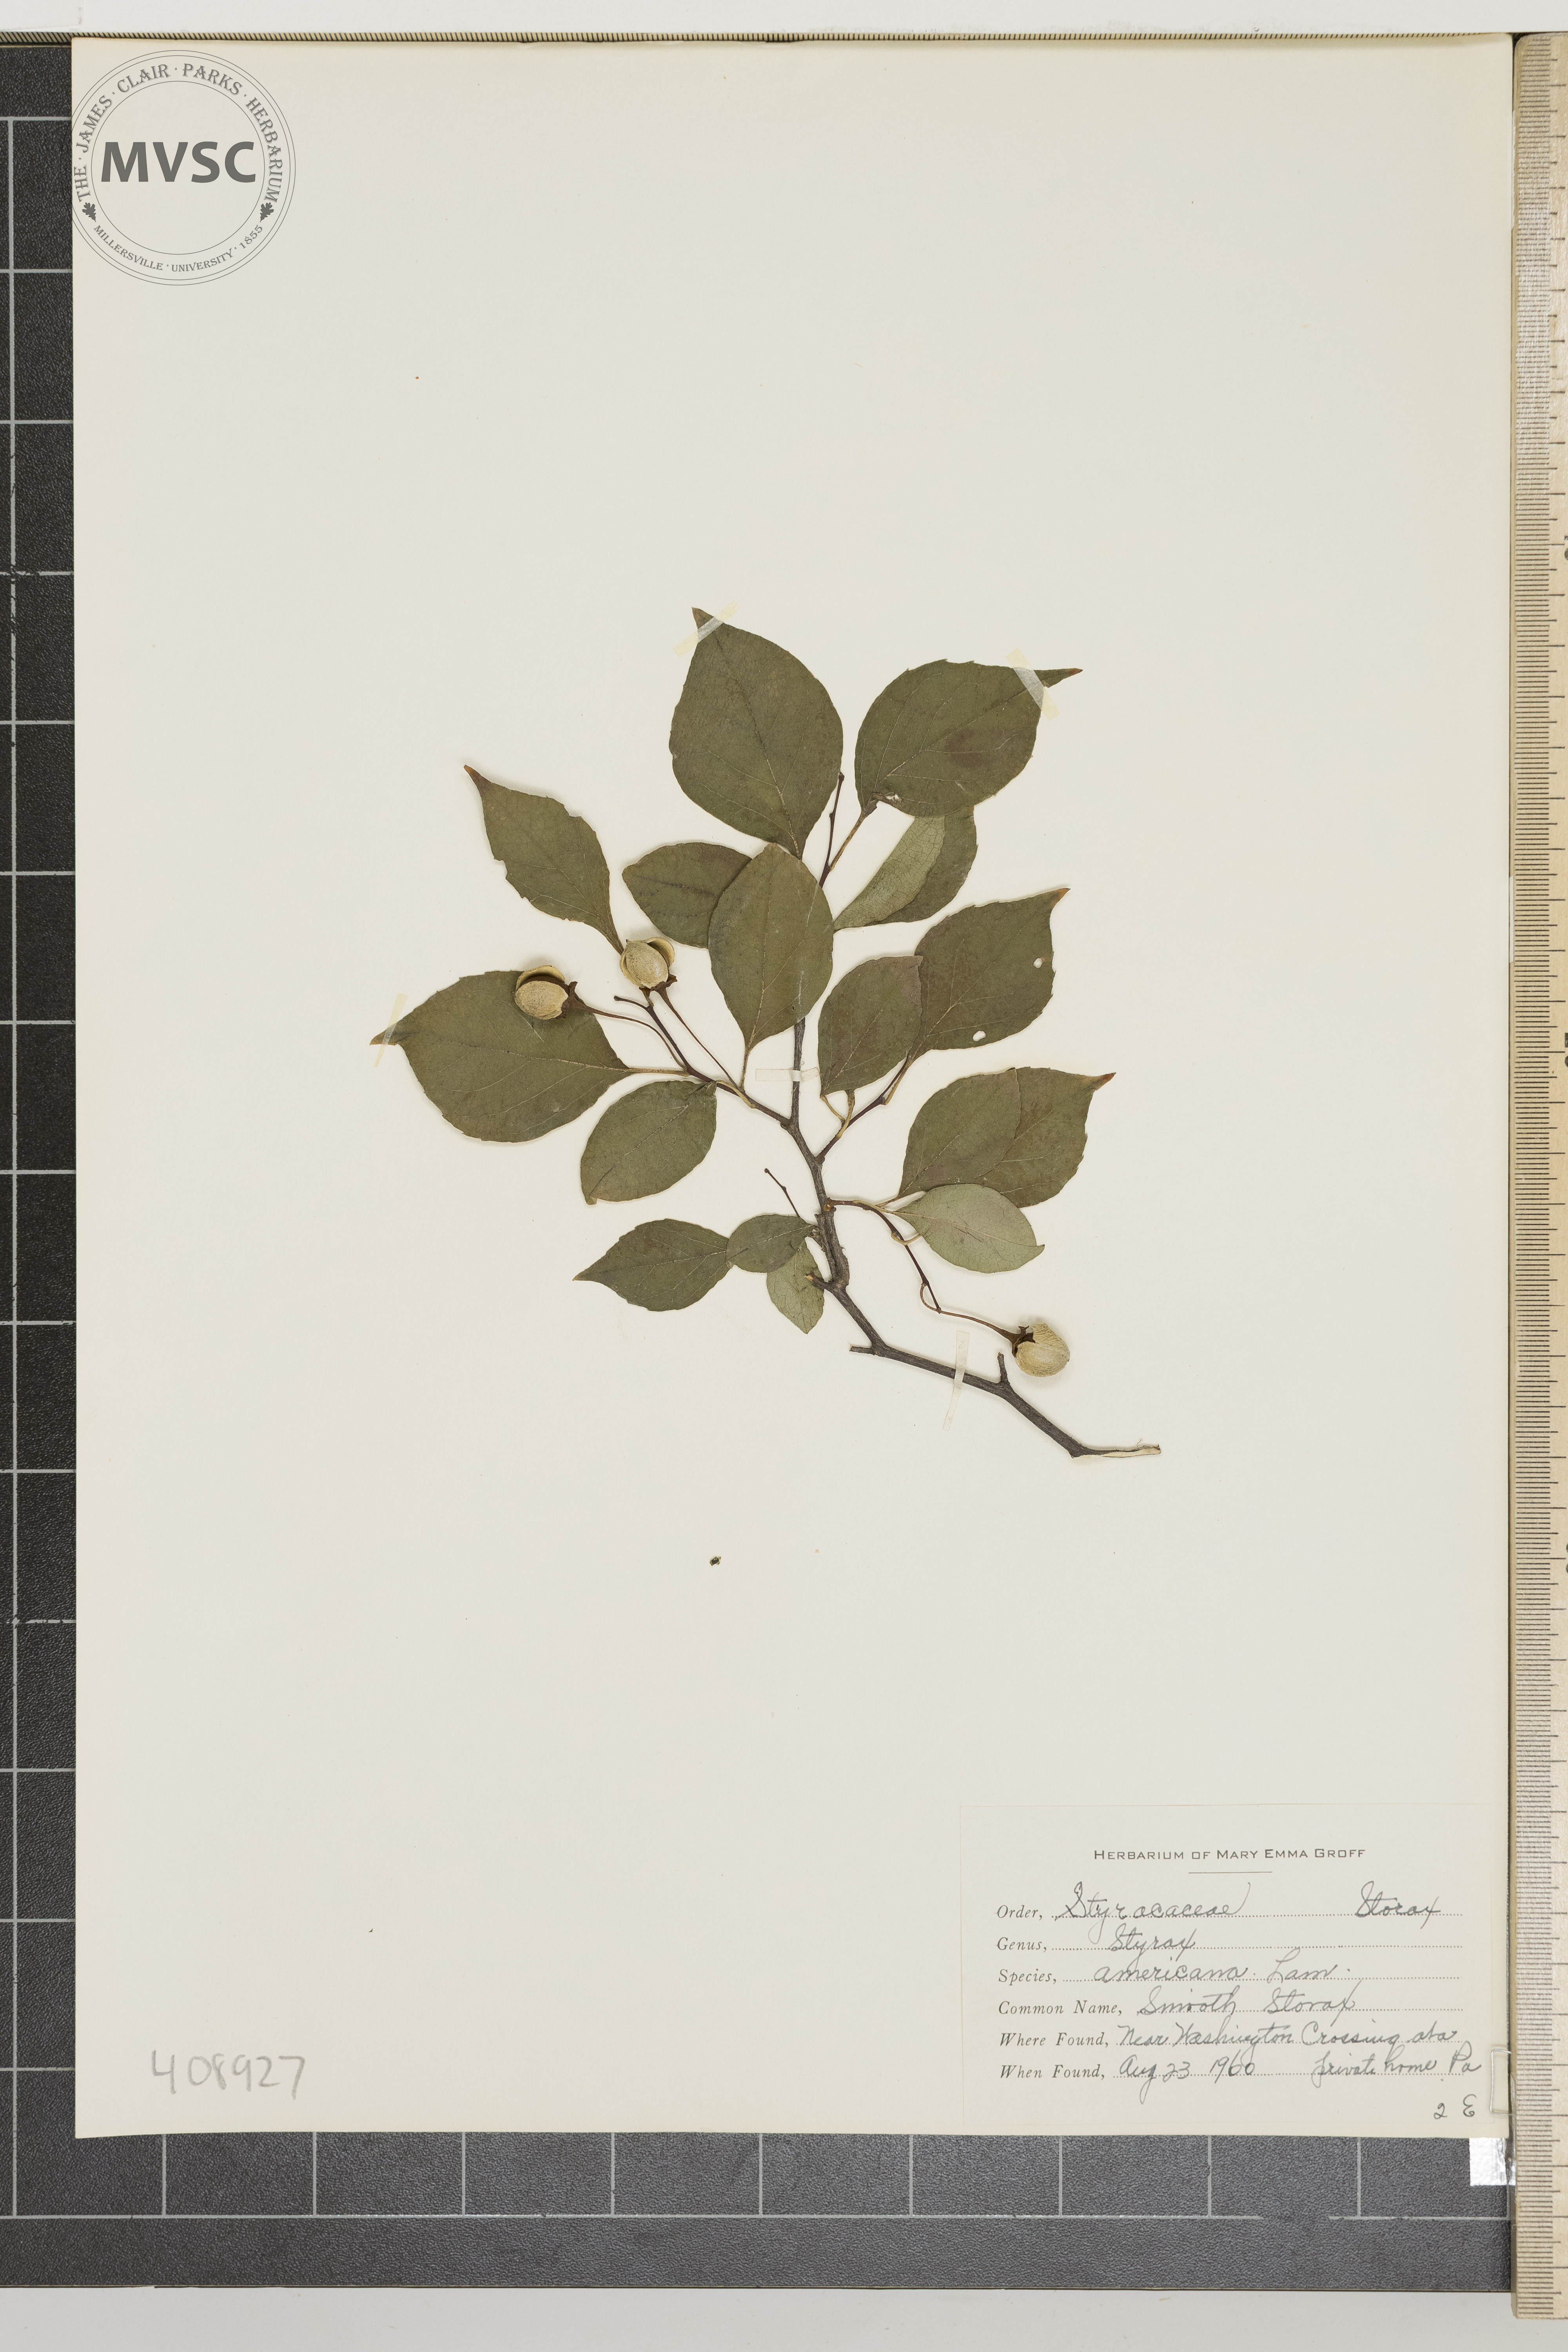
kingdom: Plantae
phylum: Tracheophyta
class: Magnoliopsida
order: Ericales
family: Styracaceae
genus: Styrax
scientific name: Styrax americanus
